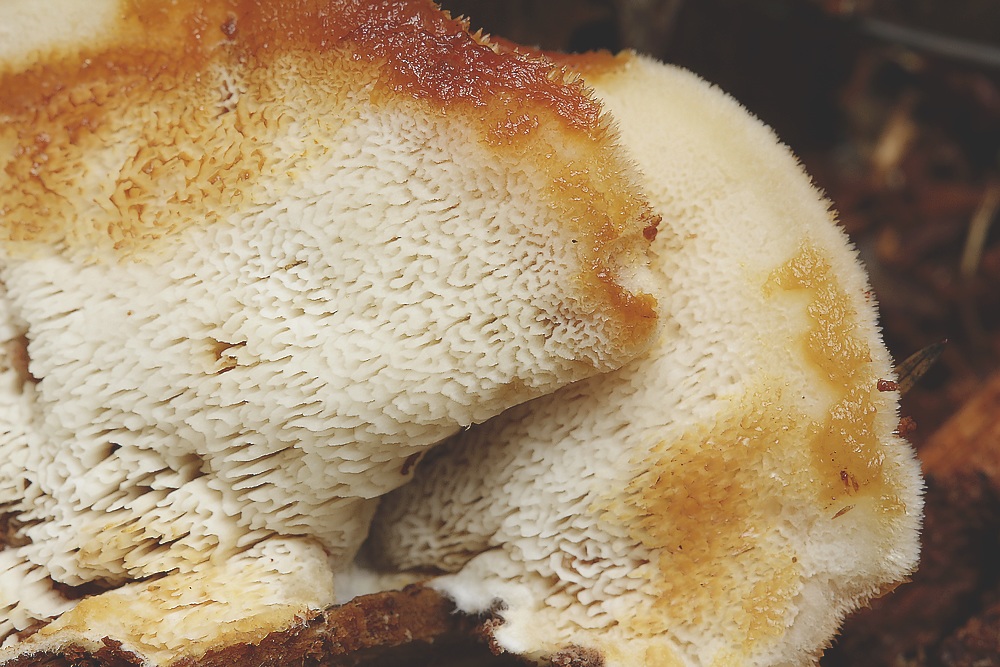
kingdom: Fungi
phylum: Basidiomycota
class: Agaricomycetes
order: Polyporales
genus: Fuscopostia
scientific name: Fuscopostia fragilis
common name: brunende kødporesvamp
